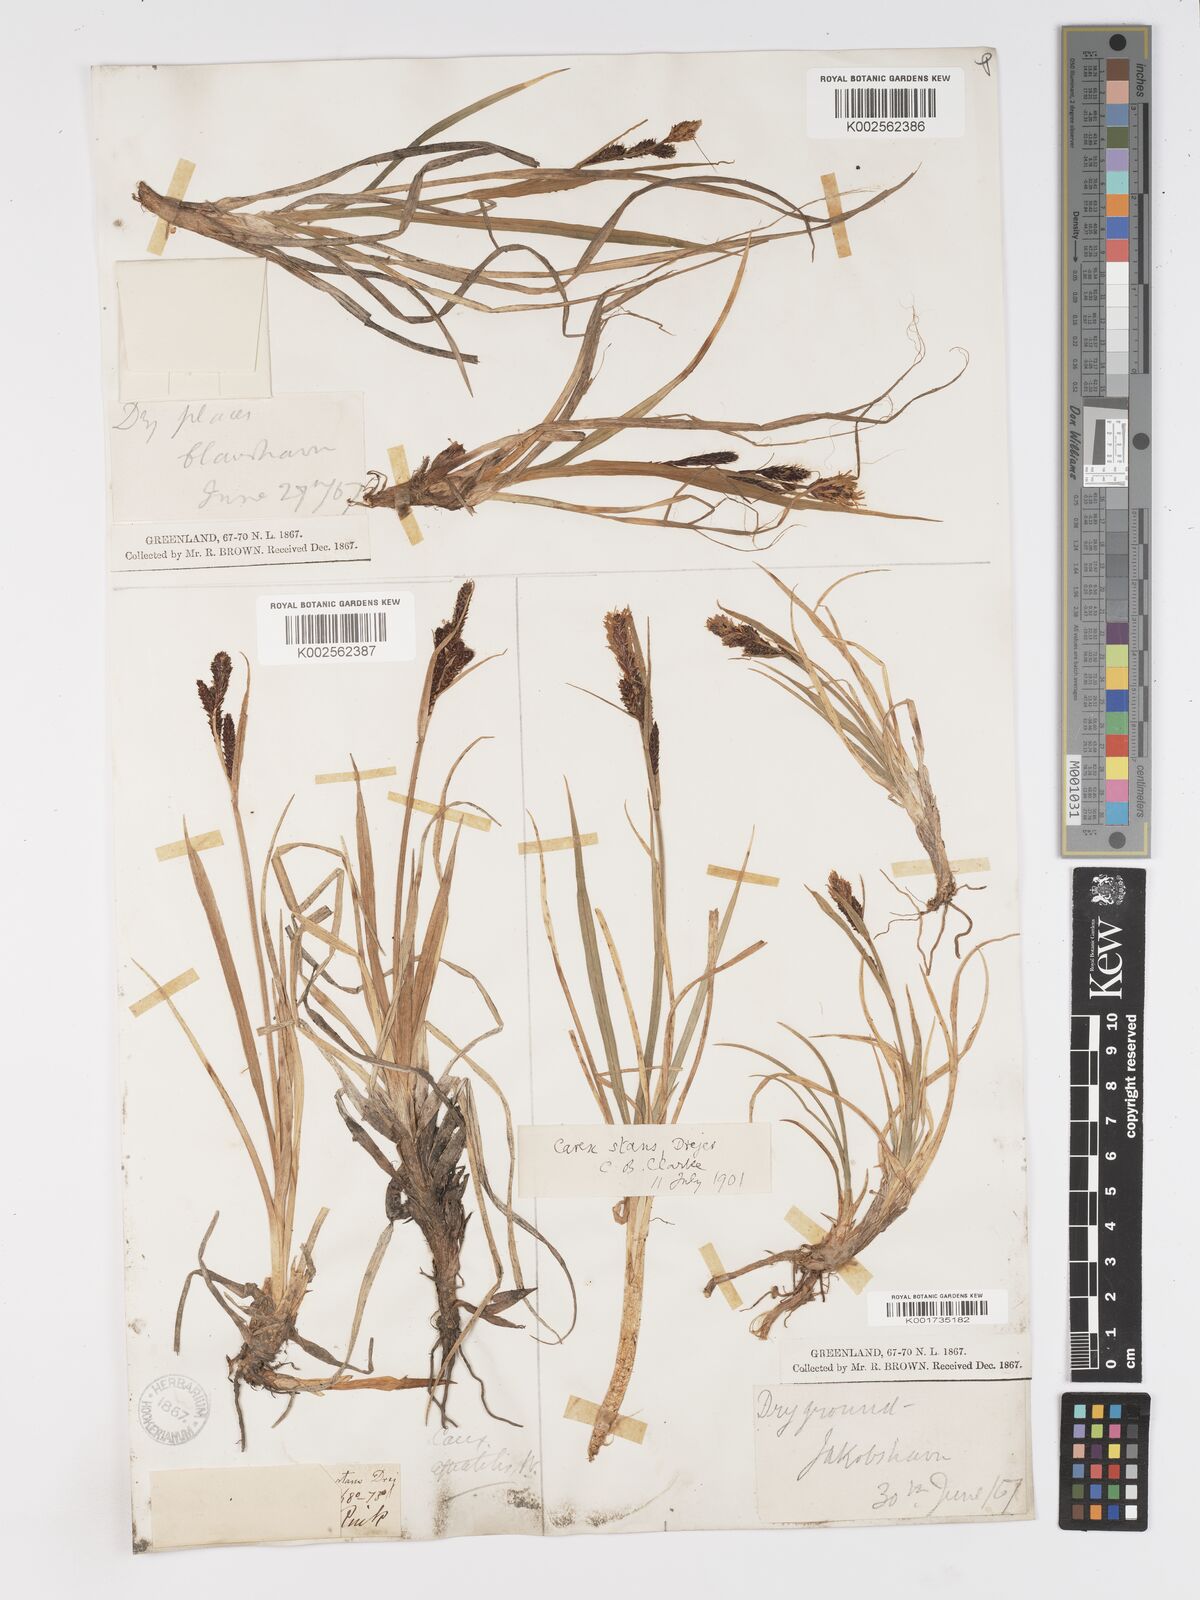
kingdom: Plantae
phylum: Tracheophyta
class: Liliopsida
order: Poales
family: Cyperaceae
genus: Carex
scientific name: Carex aquatilis
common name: Water sedge
